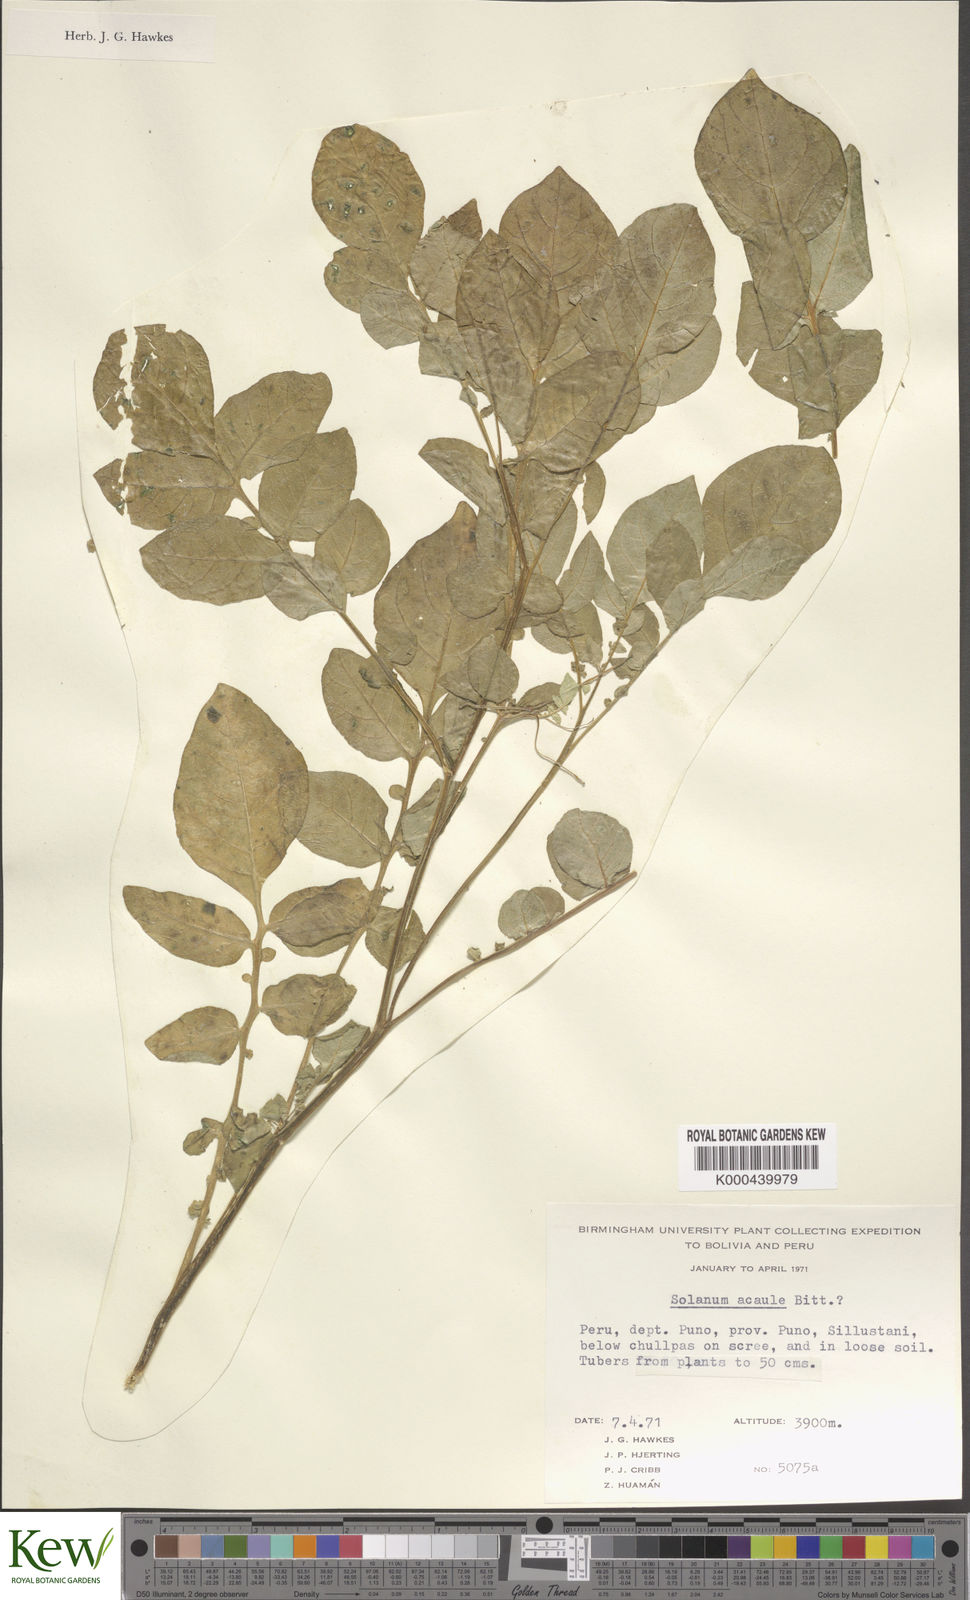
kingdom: Plantae
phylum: Tracheophyta
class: Magnoliopsida
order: Solanales
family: Solanaceae
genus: Solanum
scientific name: Solanum acaule
